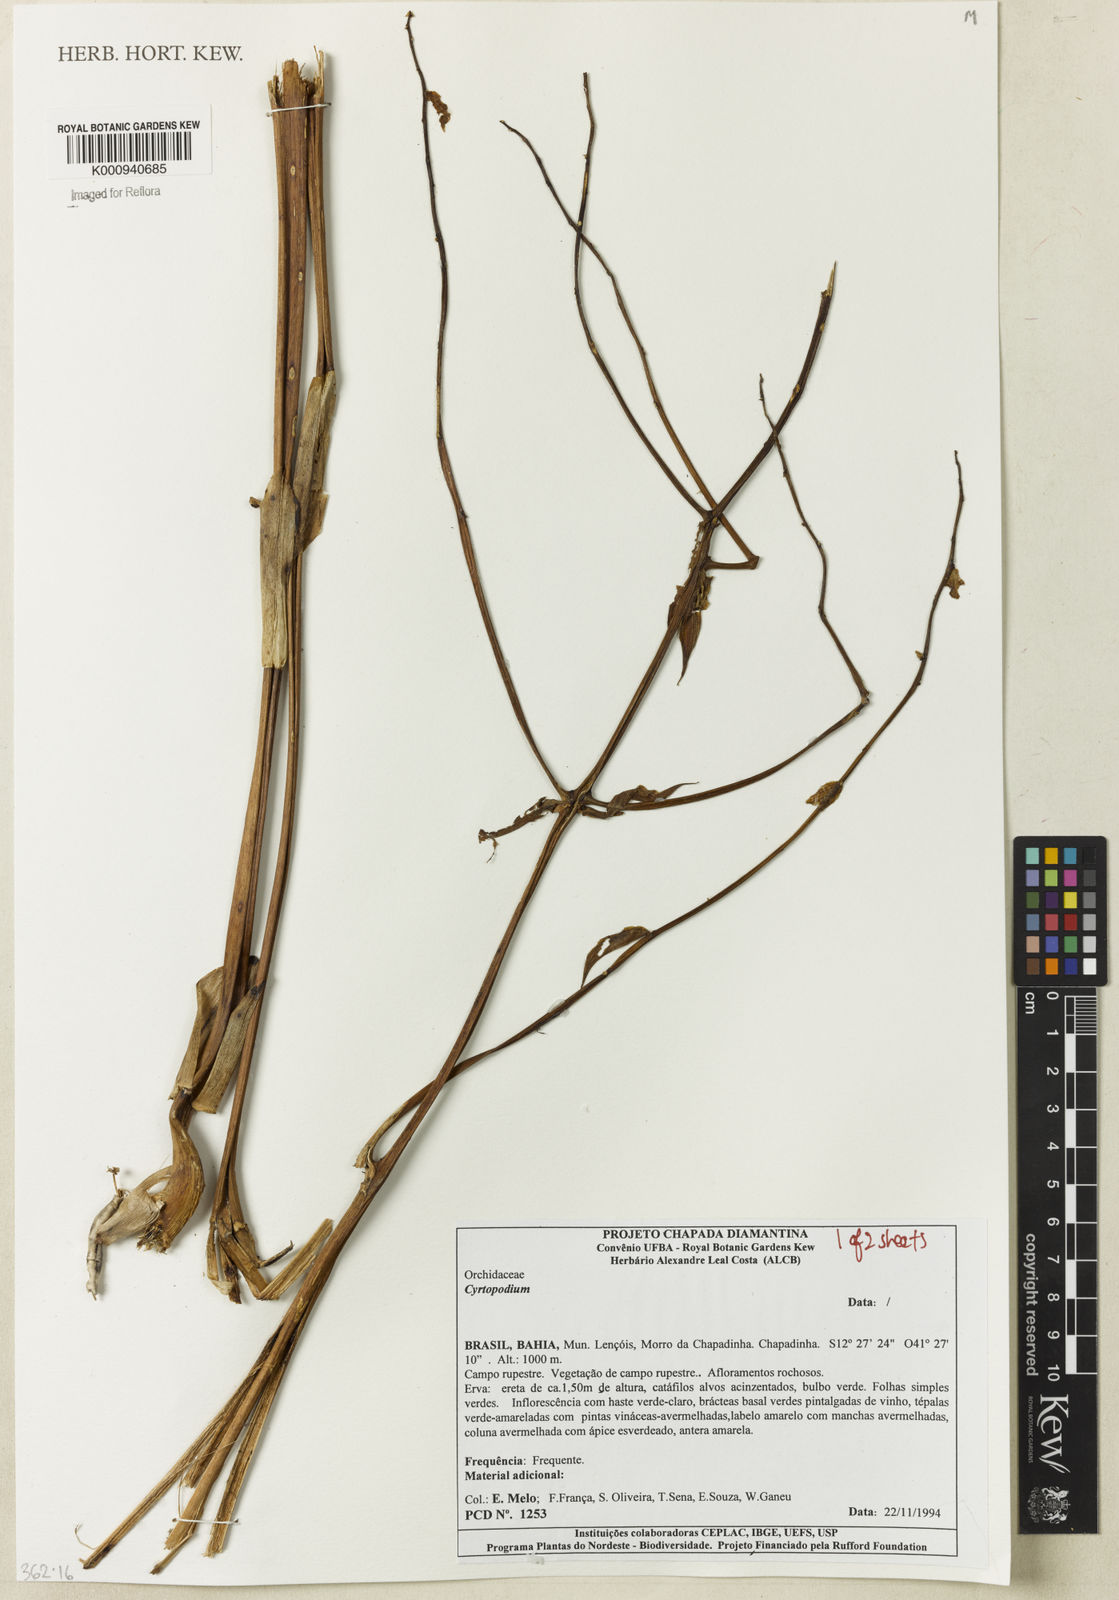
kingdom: Plantae
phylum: Tracheophyta
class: Liliopsida
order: Asparagales
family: Orchidaceae
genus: Cyrtopodium
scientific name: Cyrtopodium
